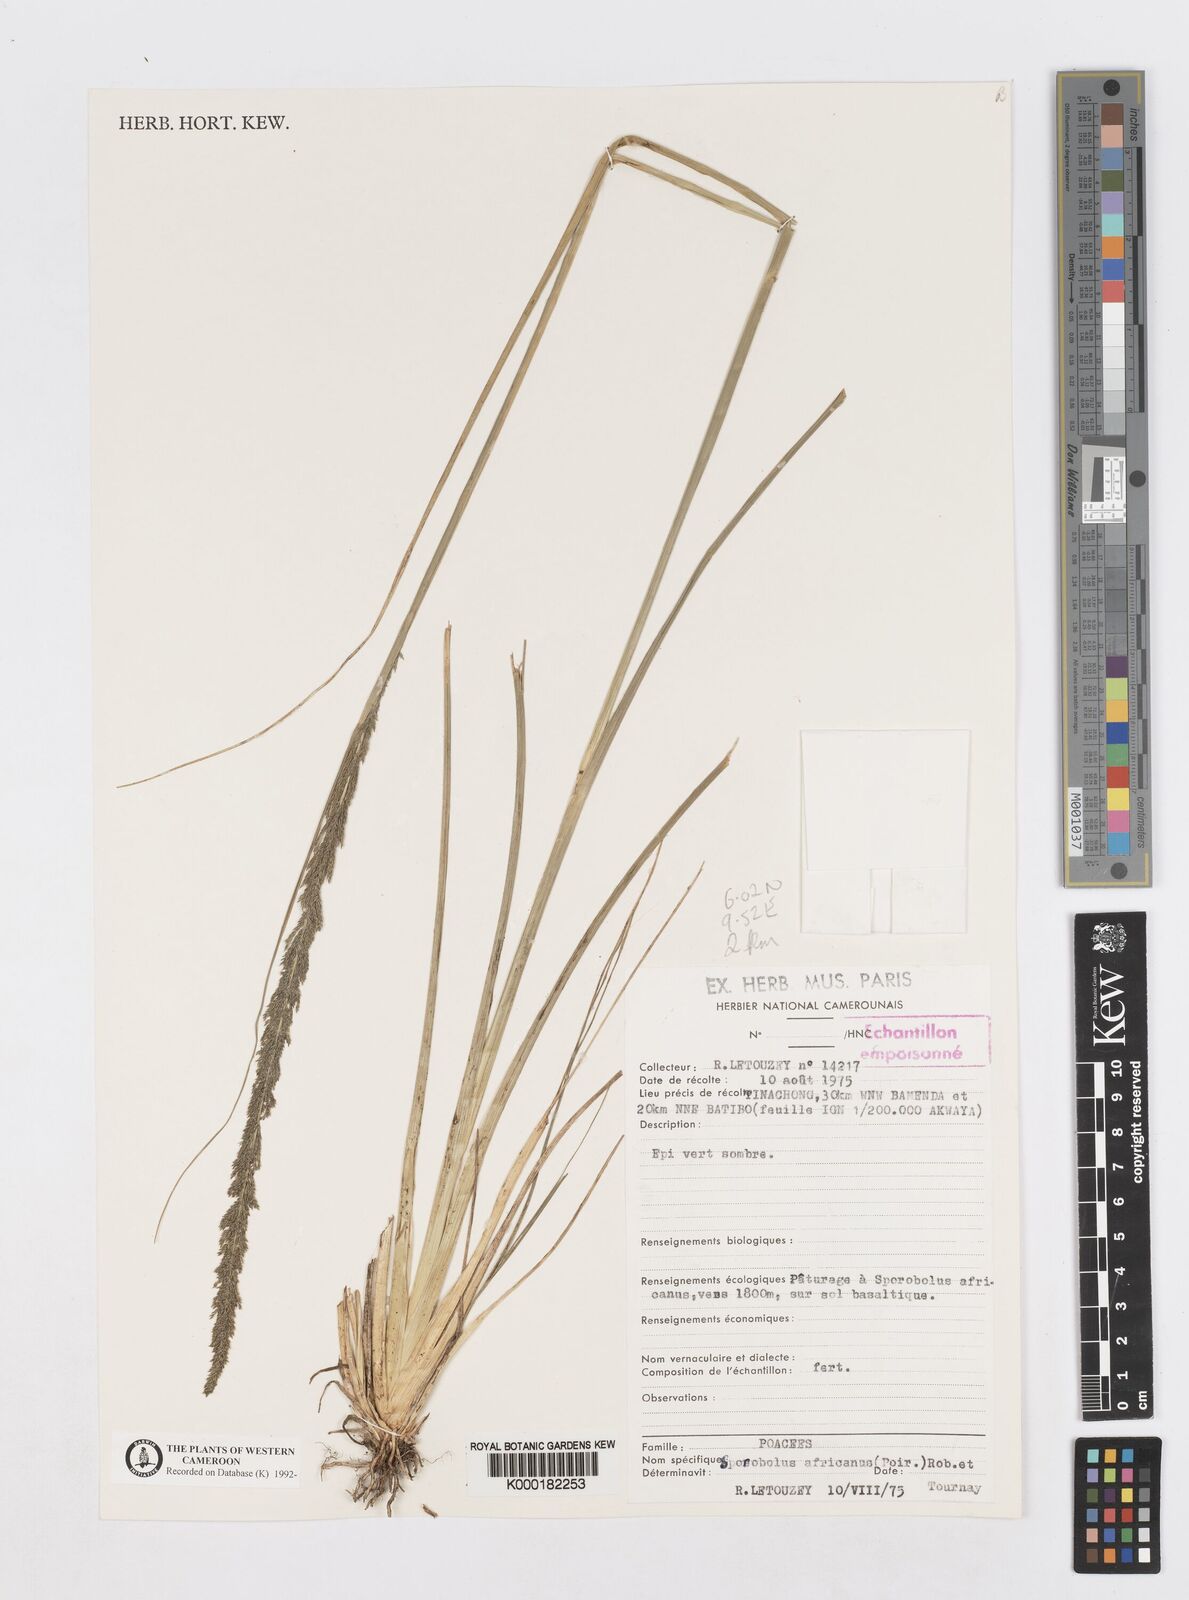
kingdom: Plantae
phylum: Tracheophyta
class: Liliopsida
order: Poales
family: Poaceae
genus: Sporobolus
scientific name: Sporobolus africanus
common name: African dropseed
